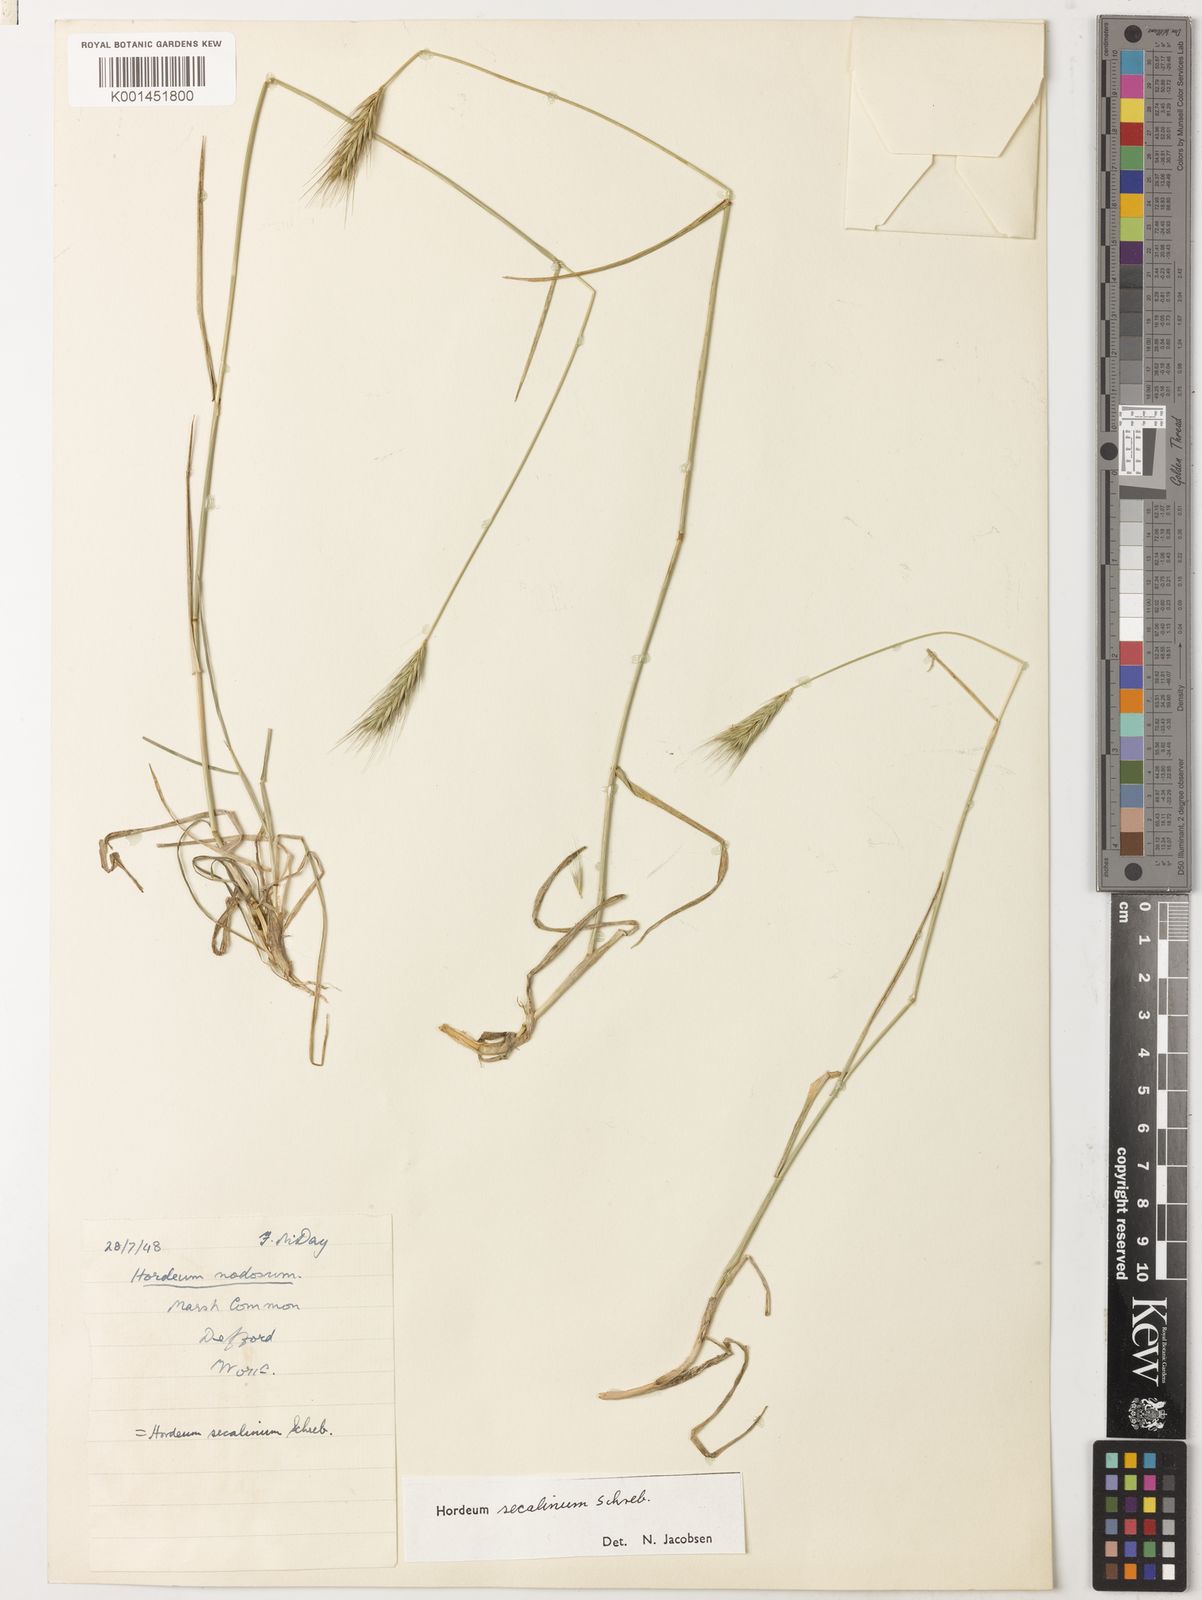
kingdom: Plantae
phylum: Tracheophyta
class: Liliopsida
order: Poales
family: Poaceae
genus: Hordeum
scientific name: Hordeum secalinum
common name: Meadow barley
